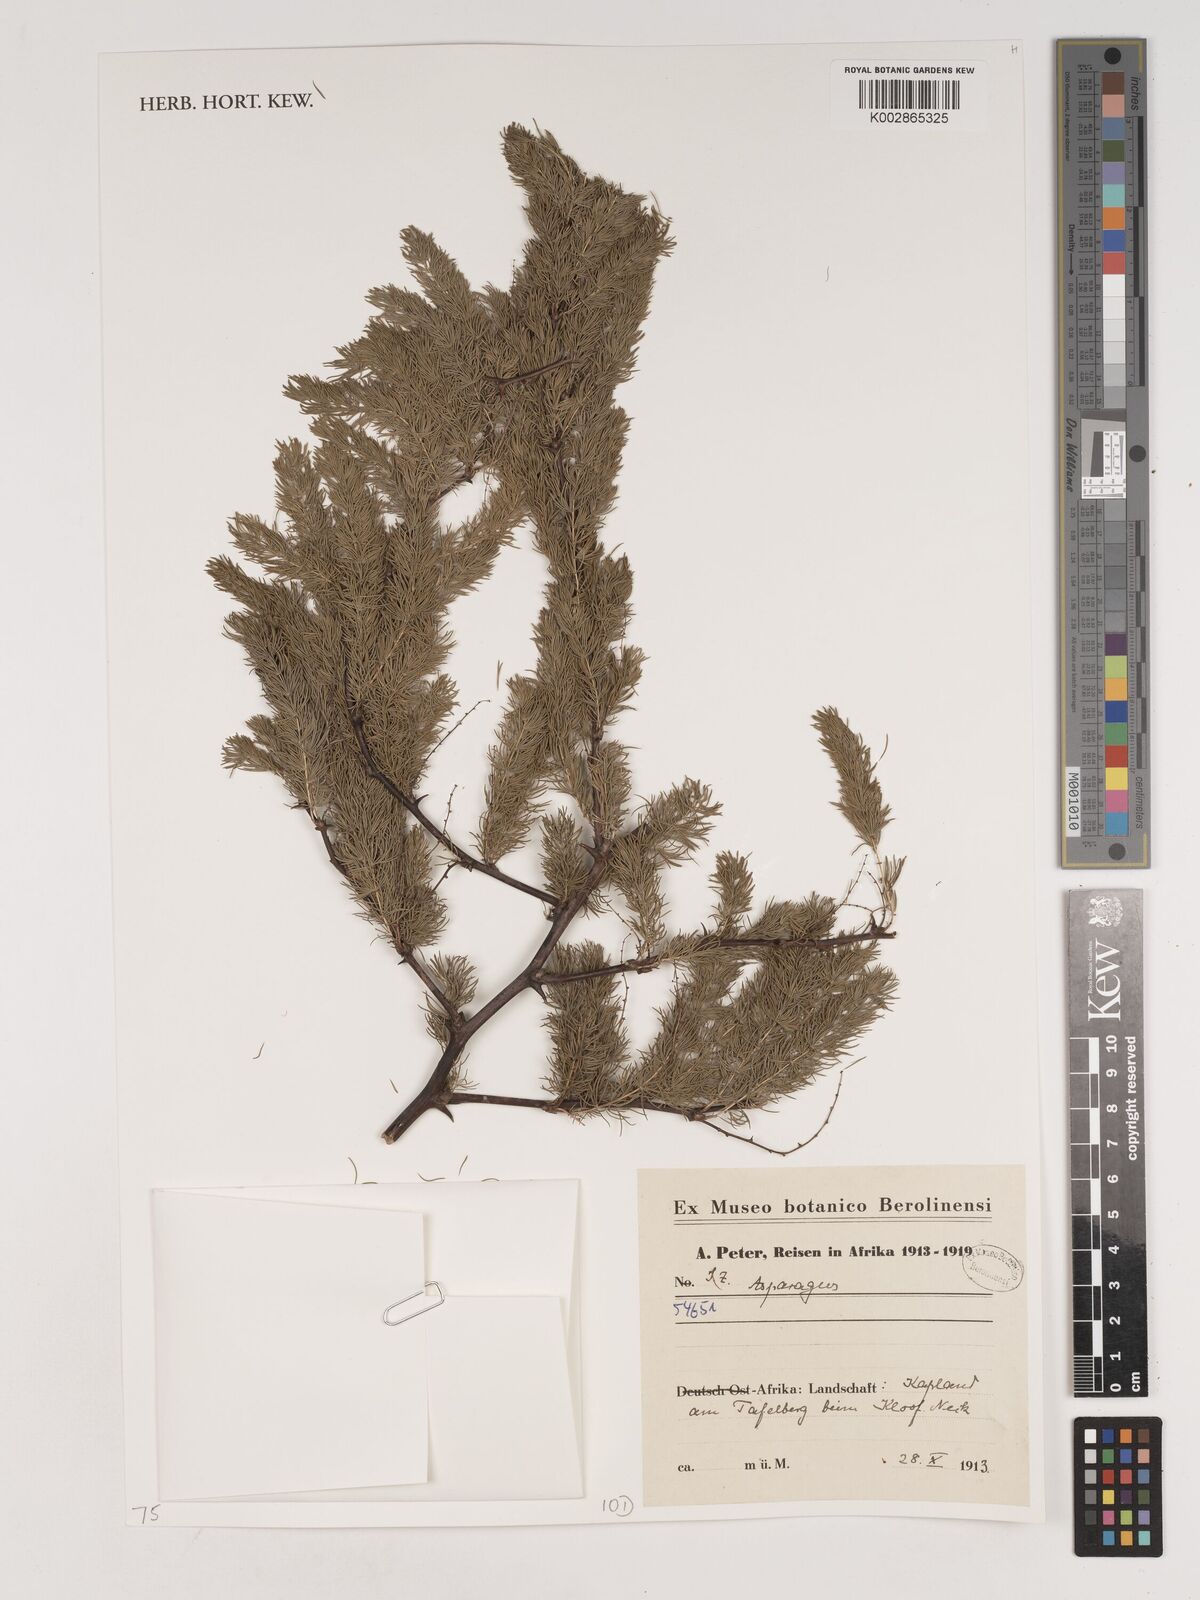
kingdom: Plantae
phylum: Tracheophyta
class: Liliopsida
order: Asparagales
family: Asparagaceae
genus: Asparagus
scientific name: Asparagus
